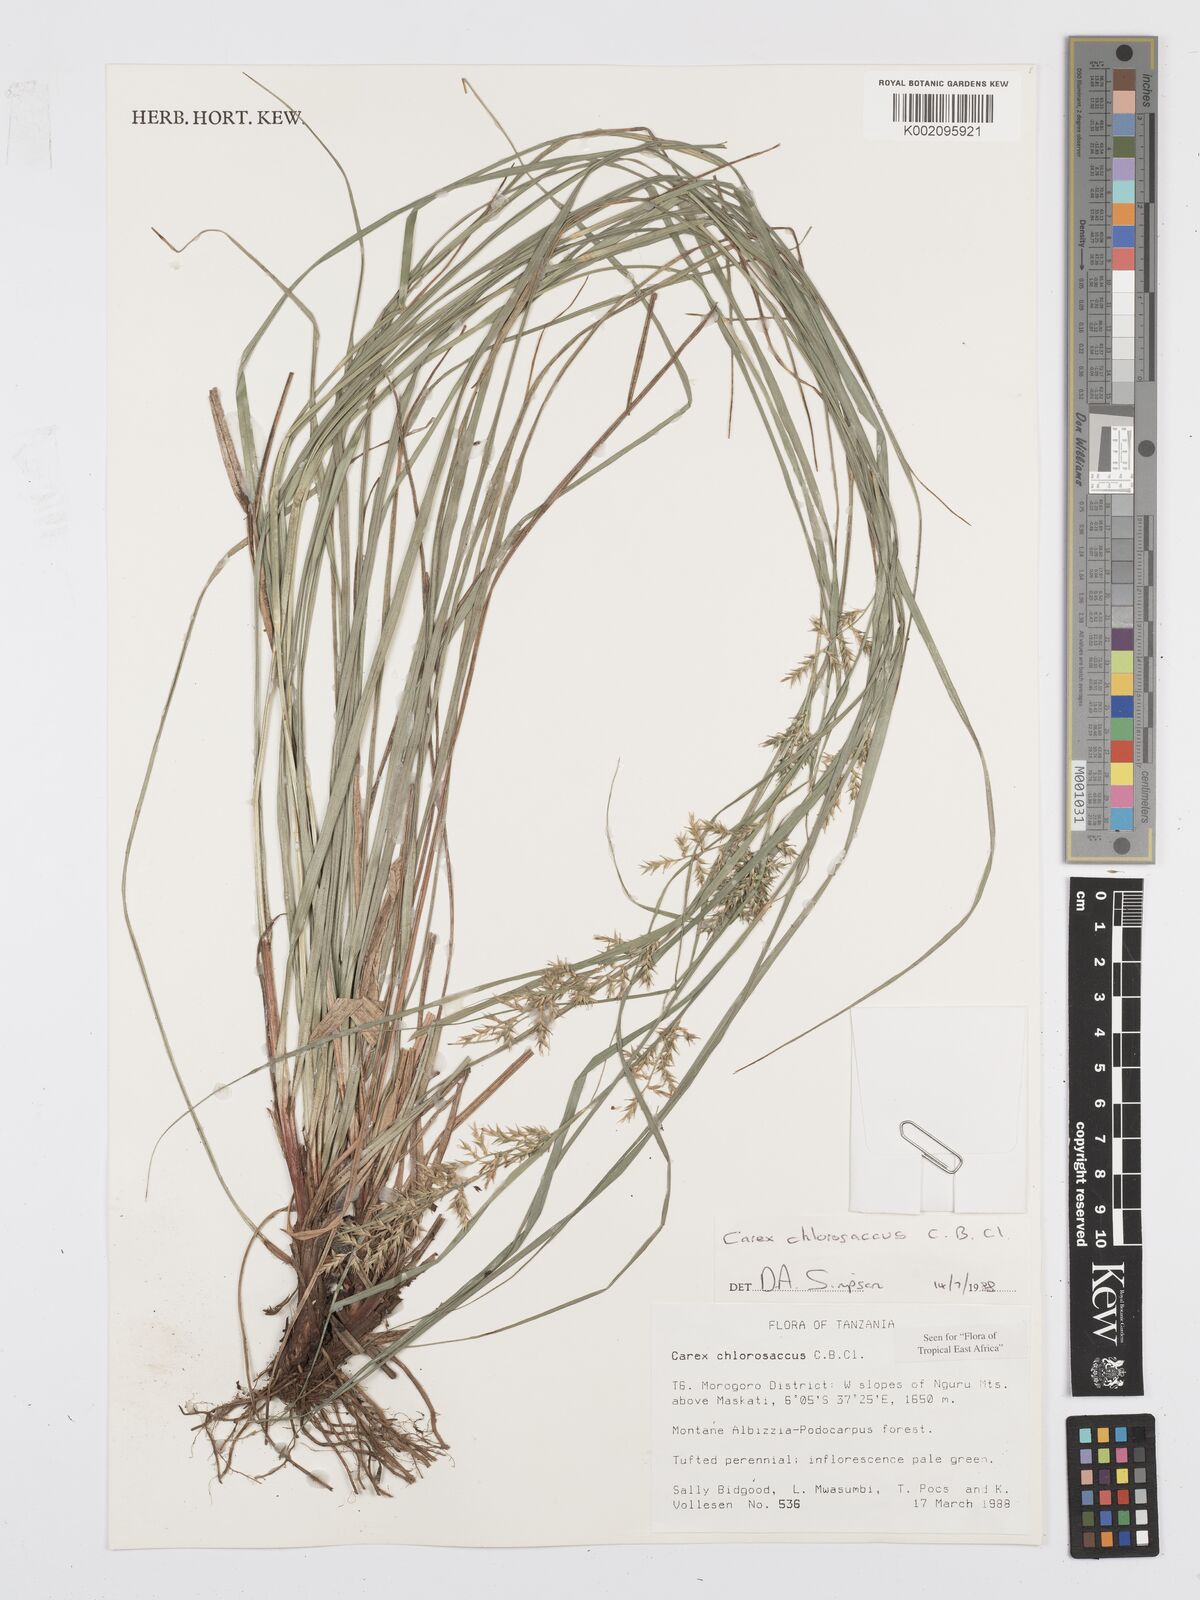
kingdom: Plantae
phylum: Tracheophyta
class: Liliopsida
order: Poales
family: Cyperaceae
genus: Carex
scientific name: Carex chlorosaccus
